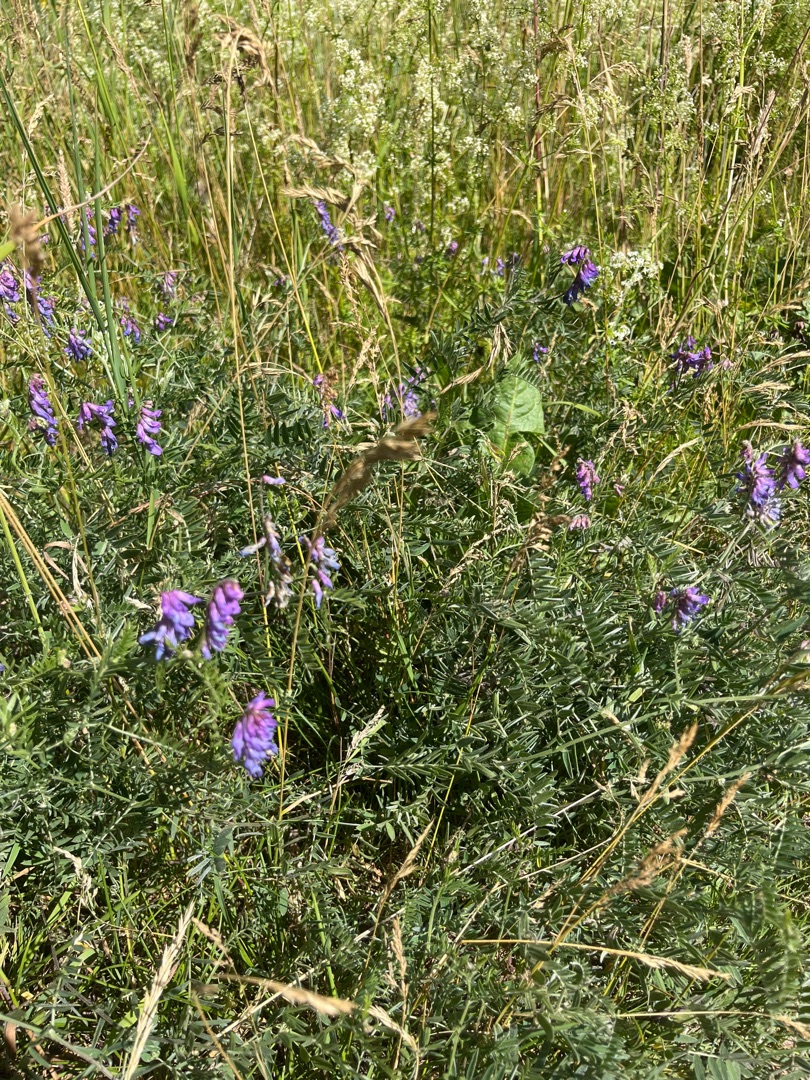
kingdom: Plantae
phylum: Tracheophyta
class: Magnoliopsida
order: Fabales
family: Fabaceae
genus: Vicia
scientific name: Vicia cracca
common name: Muse-vikke
